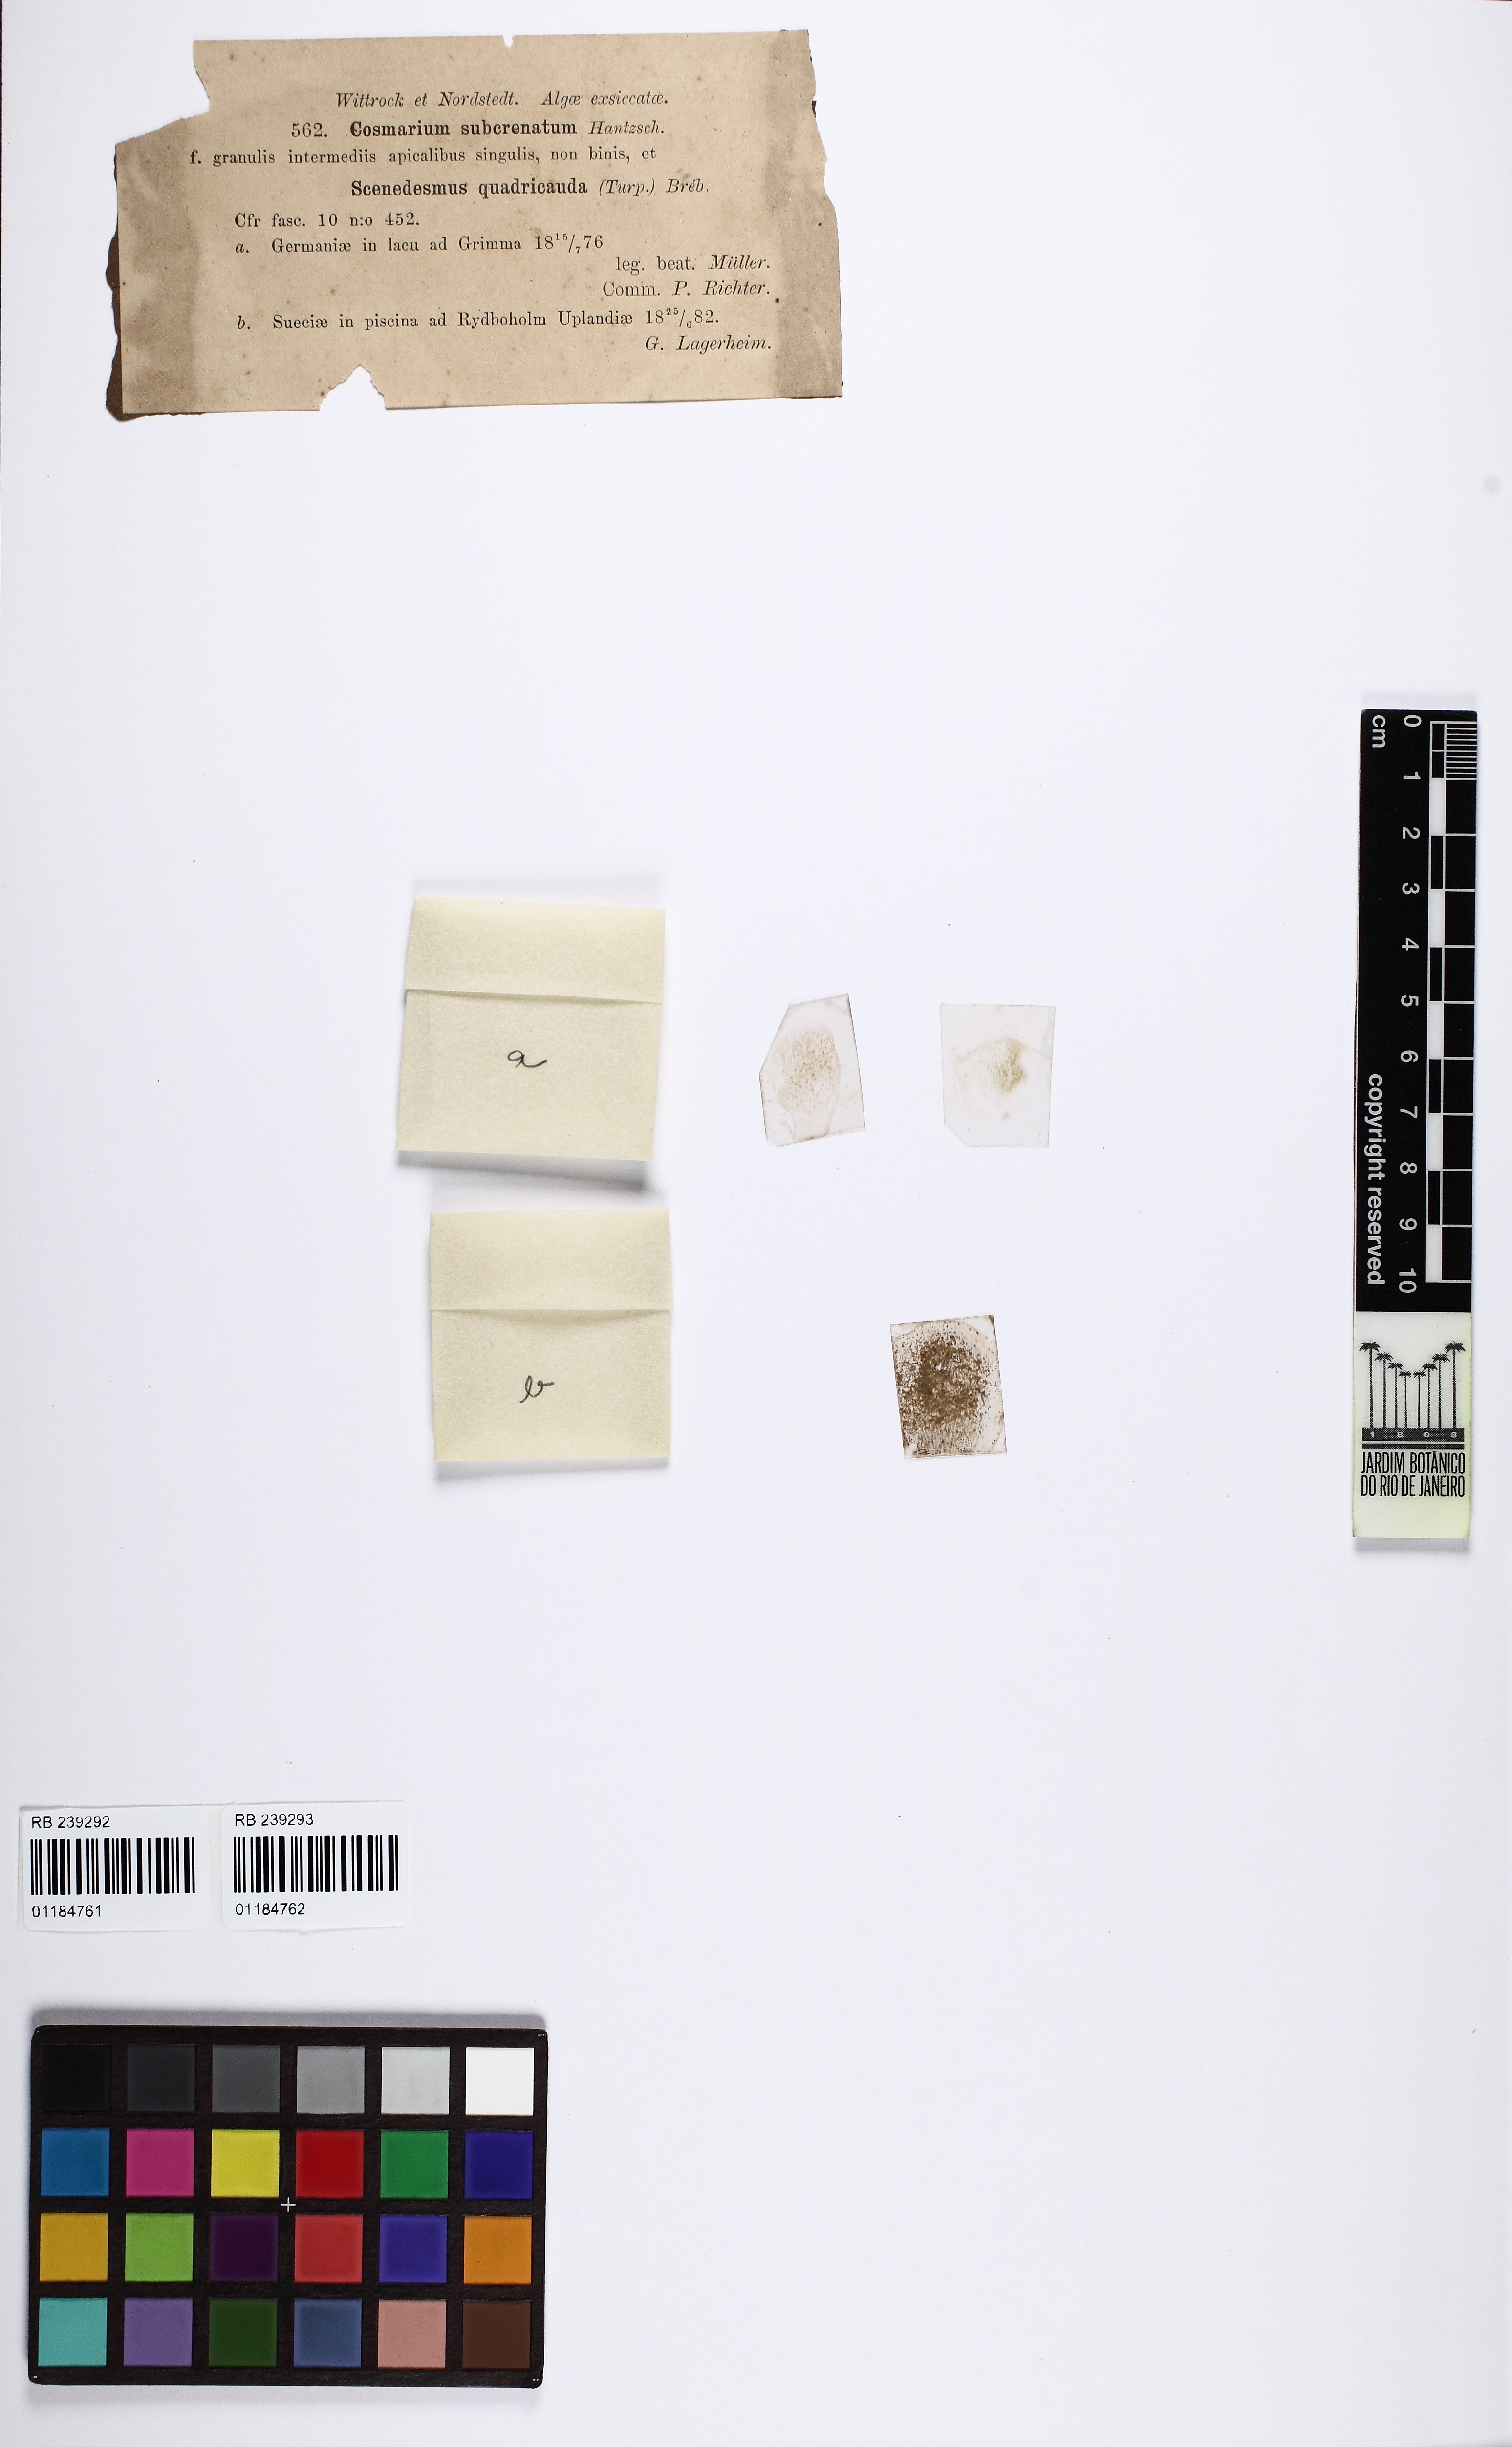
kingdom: Plantae
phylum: Charophyta
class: Conjugatophyceae
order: Desmidiales
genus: Cosmarium
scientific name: Cosmarium subcrenatum
